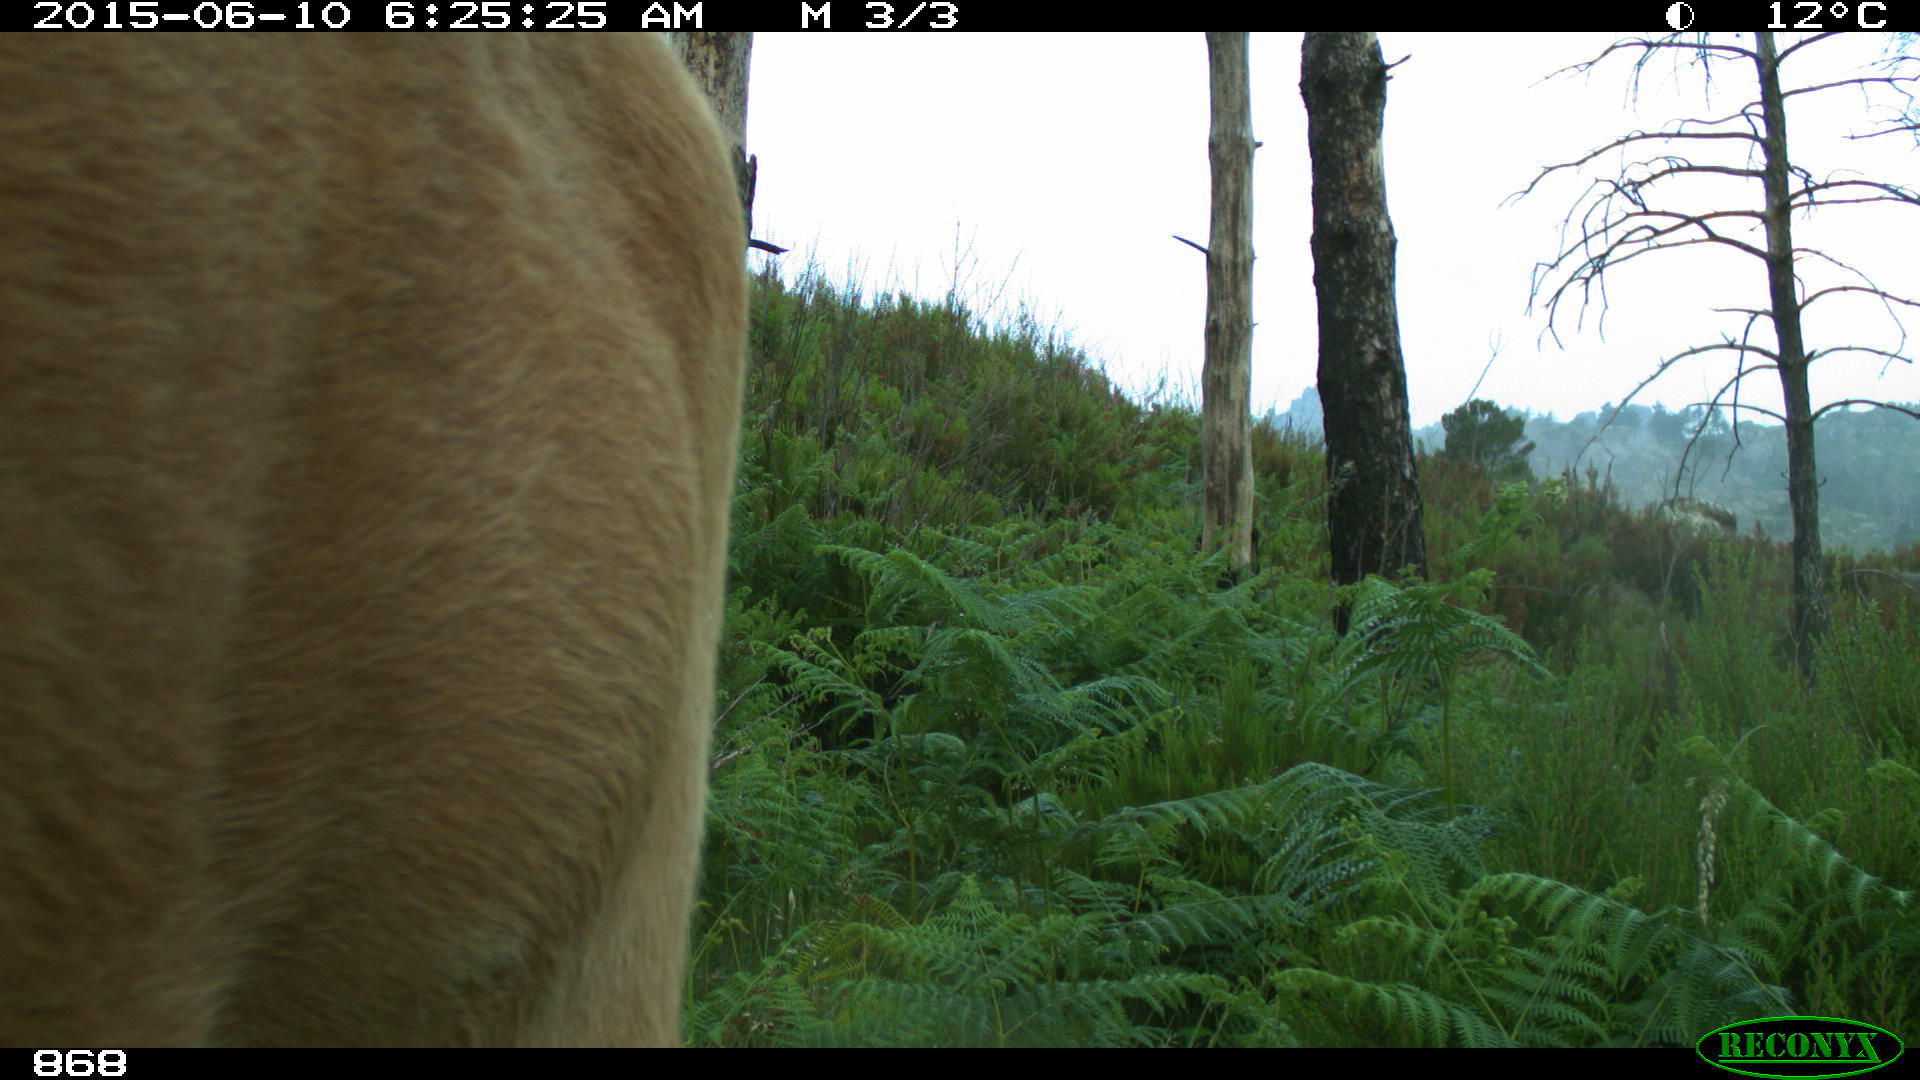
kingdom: Animalia
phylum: Chordata
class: Mammalia
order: Artiodactyla
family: Bovidae
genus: Bos
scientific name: Bos taurus
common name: Domesticated cattle
